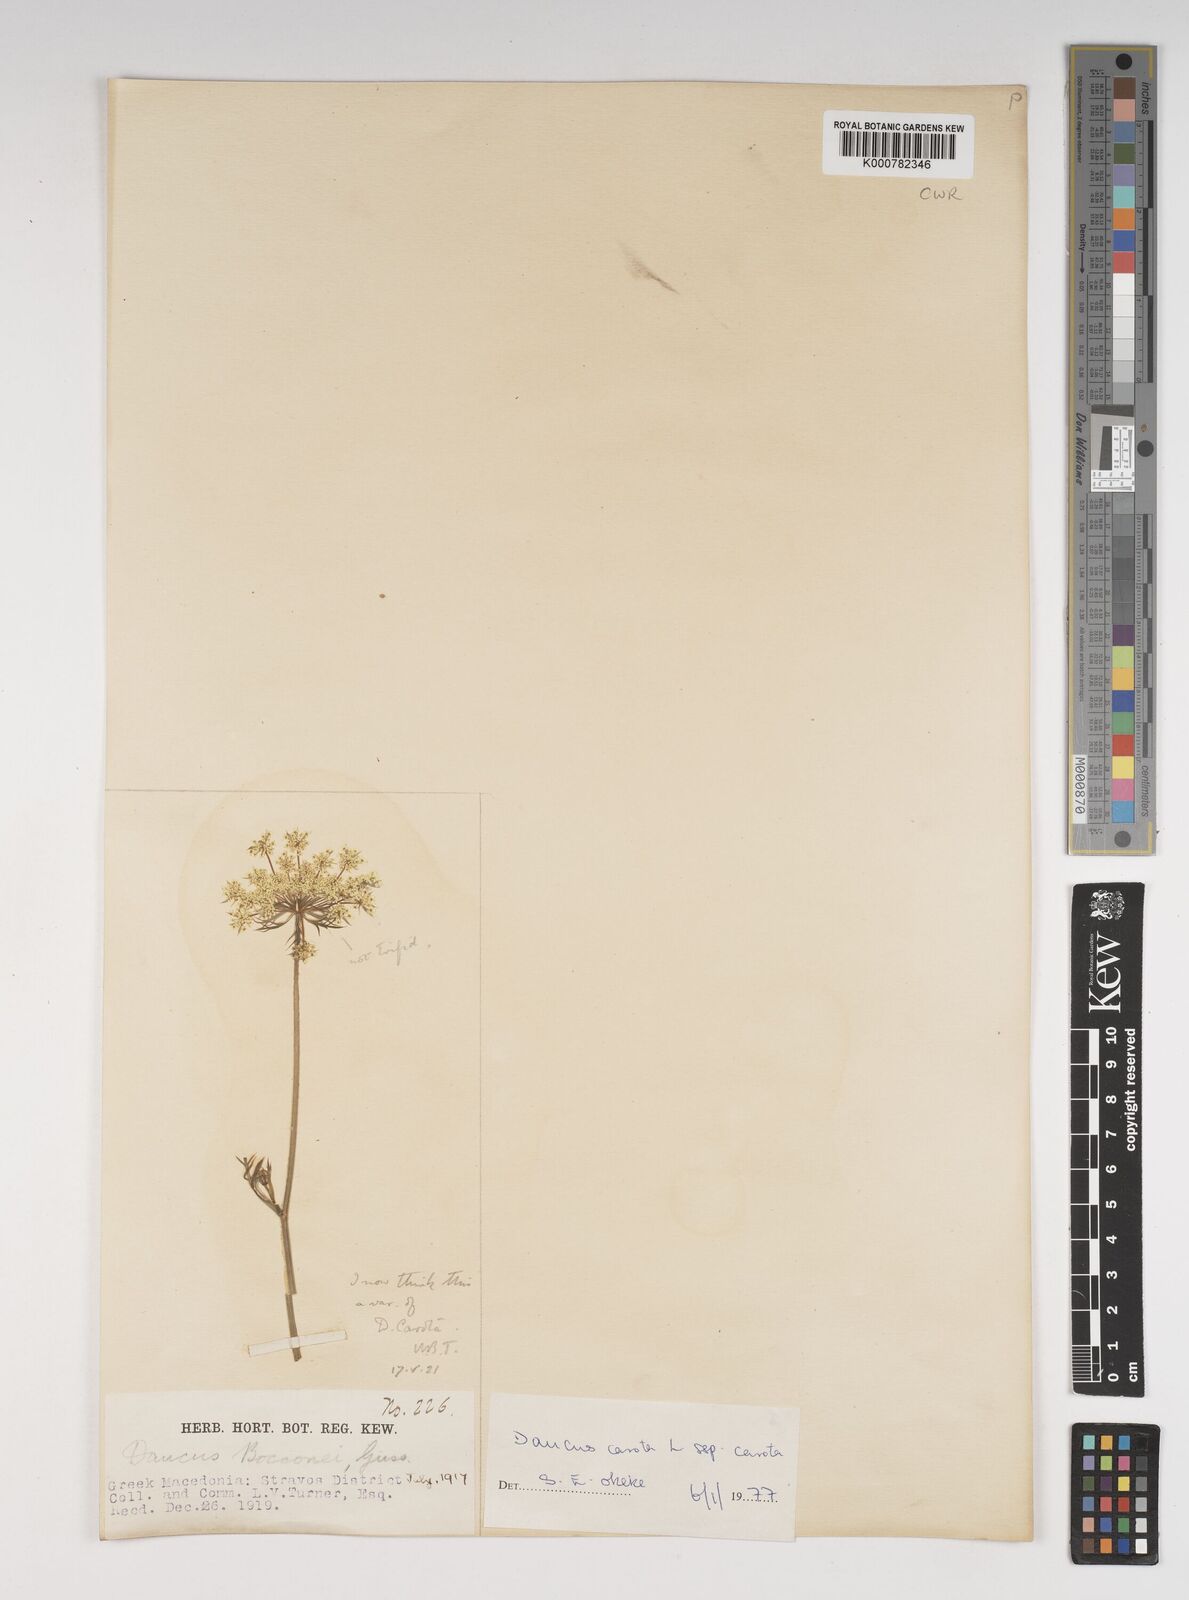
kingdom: Plantae
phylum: Tracheophyta
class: Magnoliopsida
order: Apiales
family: Apiaceae
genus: Daucus
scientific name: Daucus carota
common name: Wild carrot
